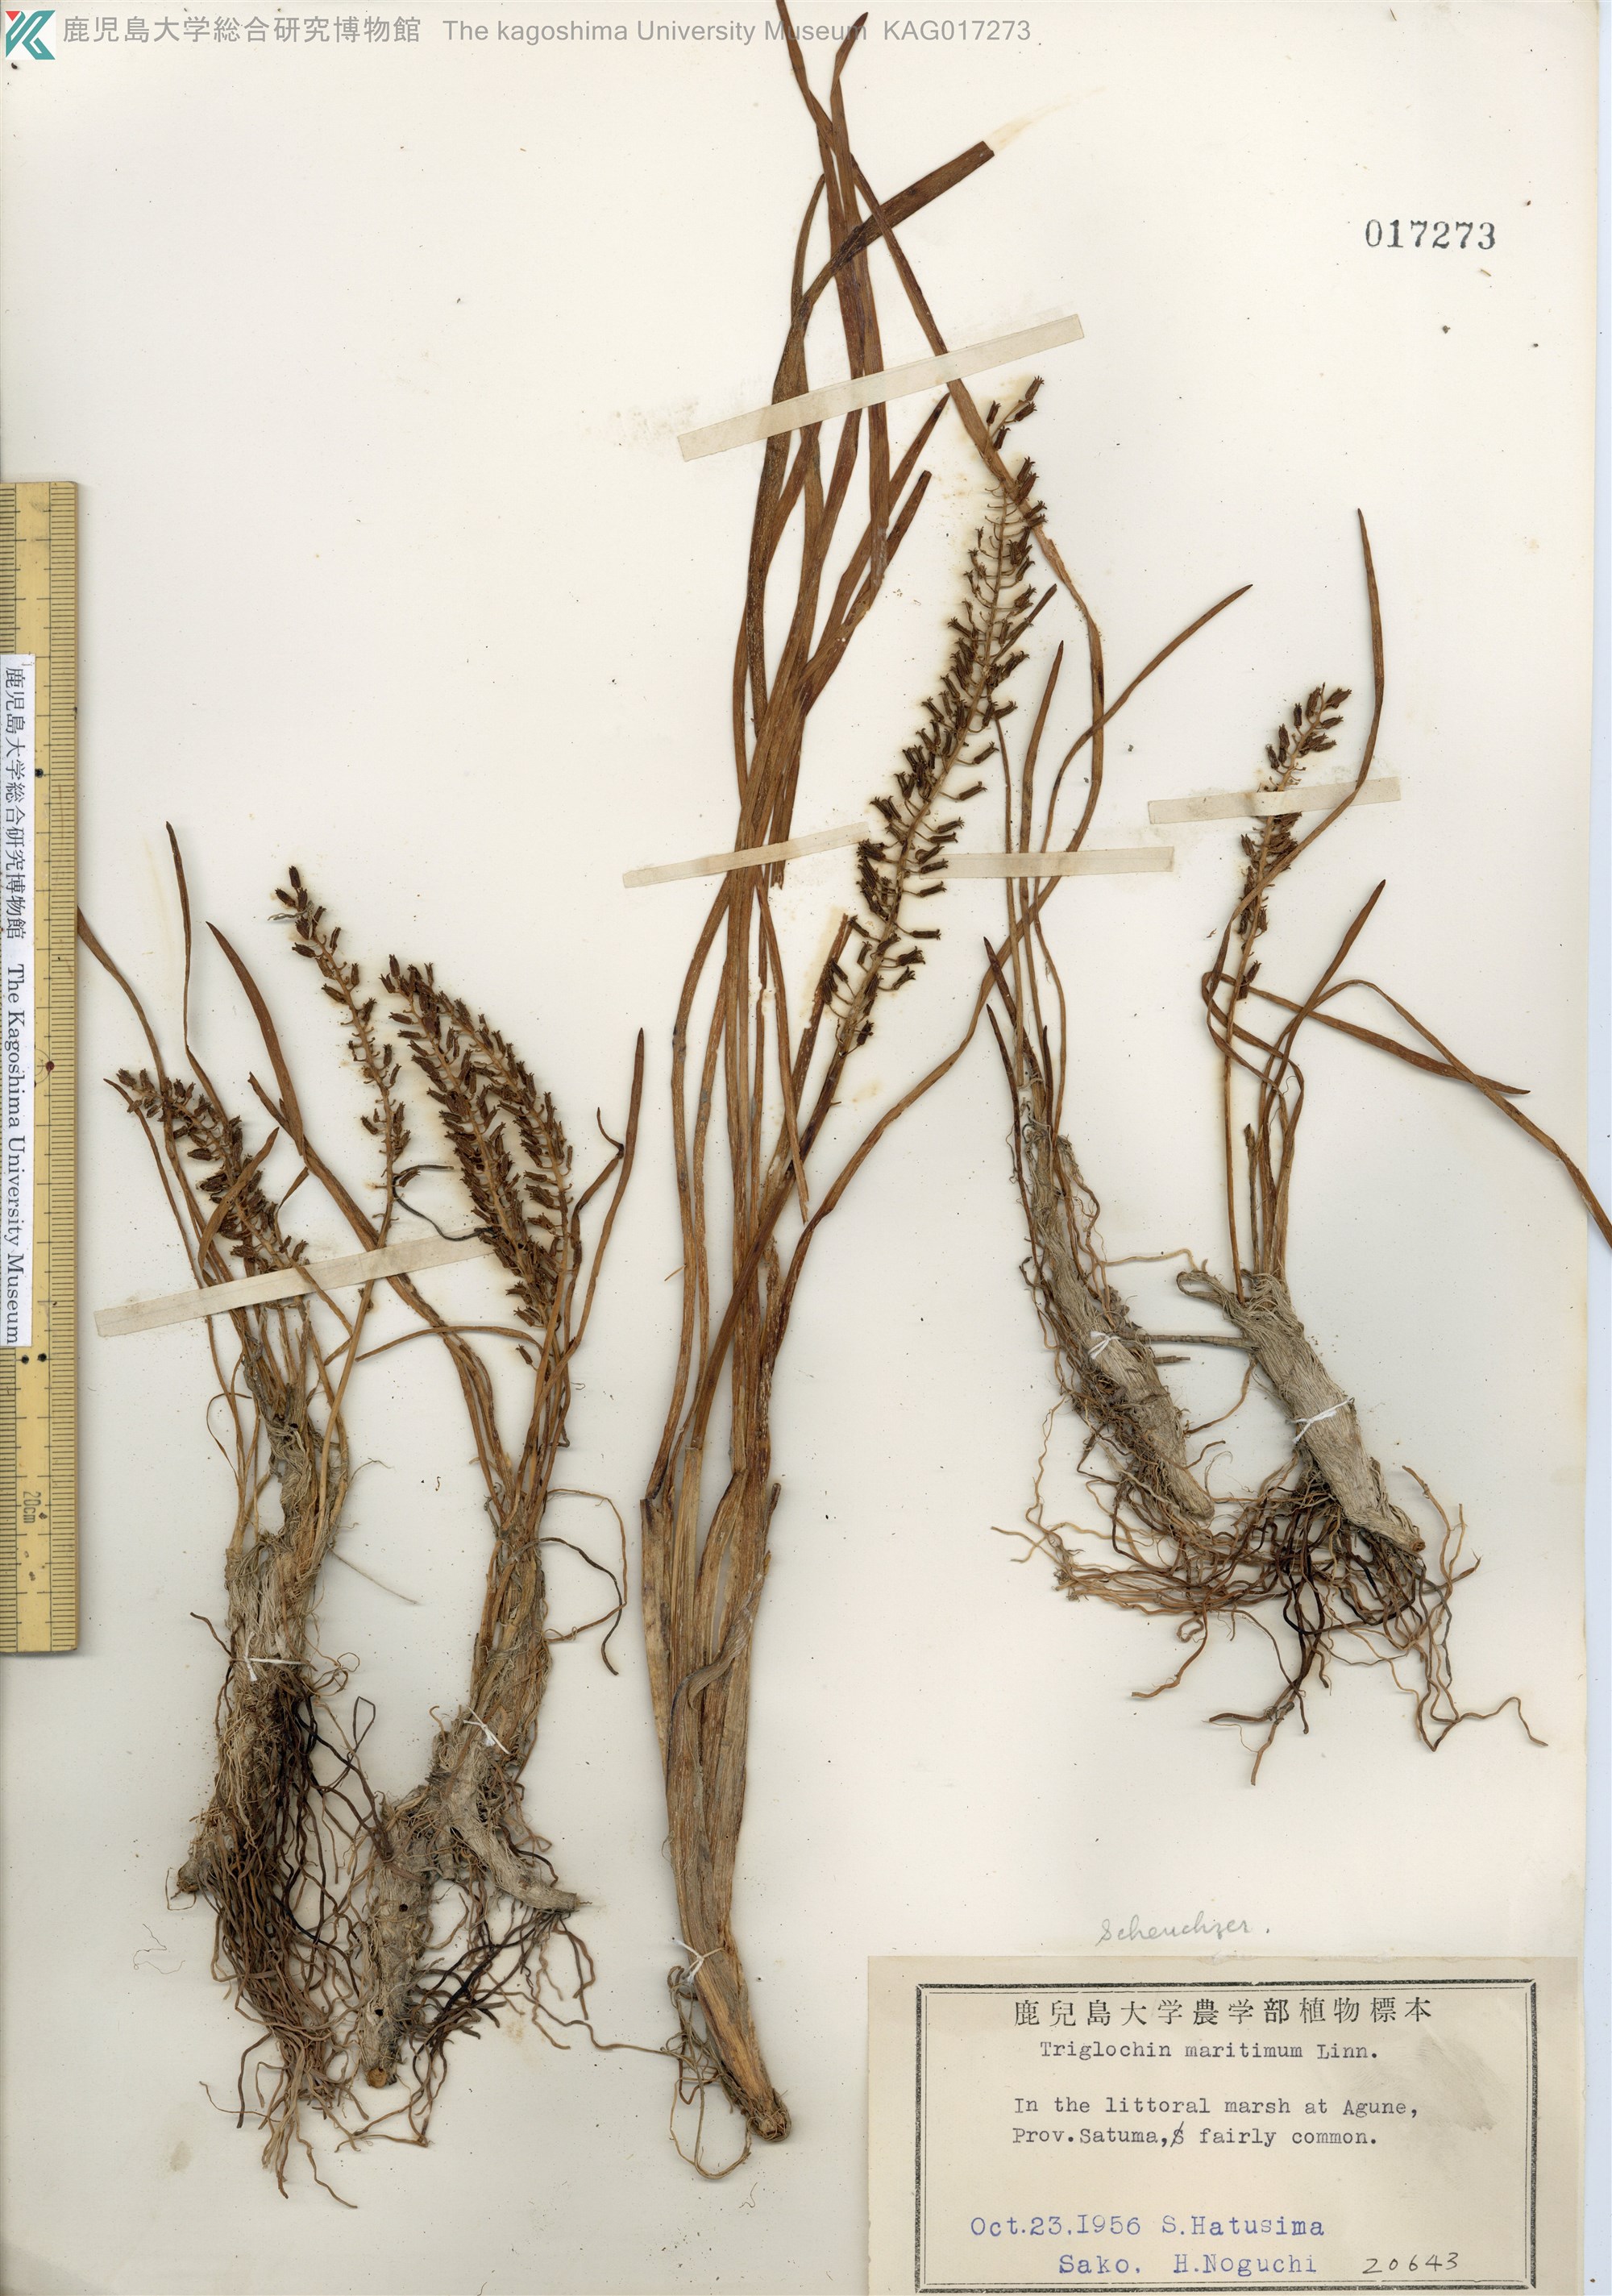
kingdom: Plantae
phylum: Tracheophyta
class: Liliopsida
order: Alismatales
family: Juncaginaceae
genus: Triglochin
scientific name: Triglochin maritima
